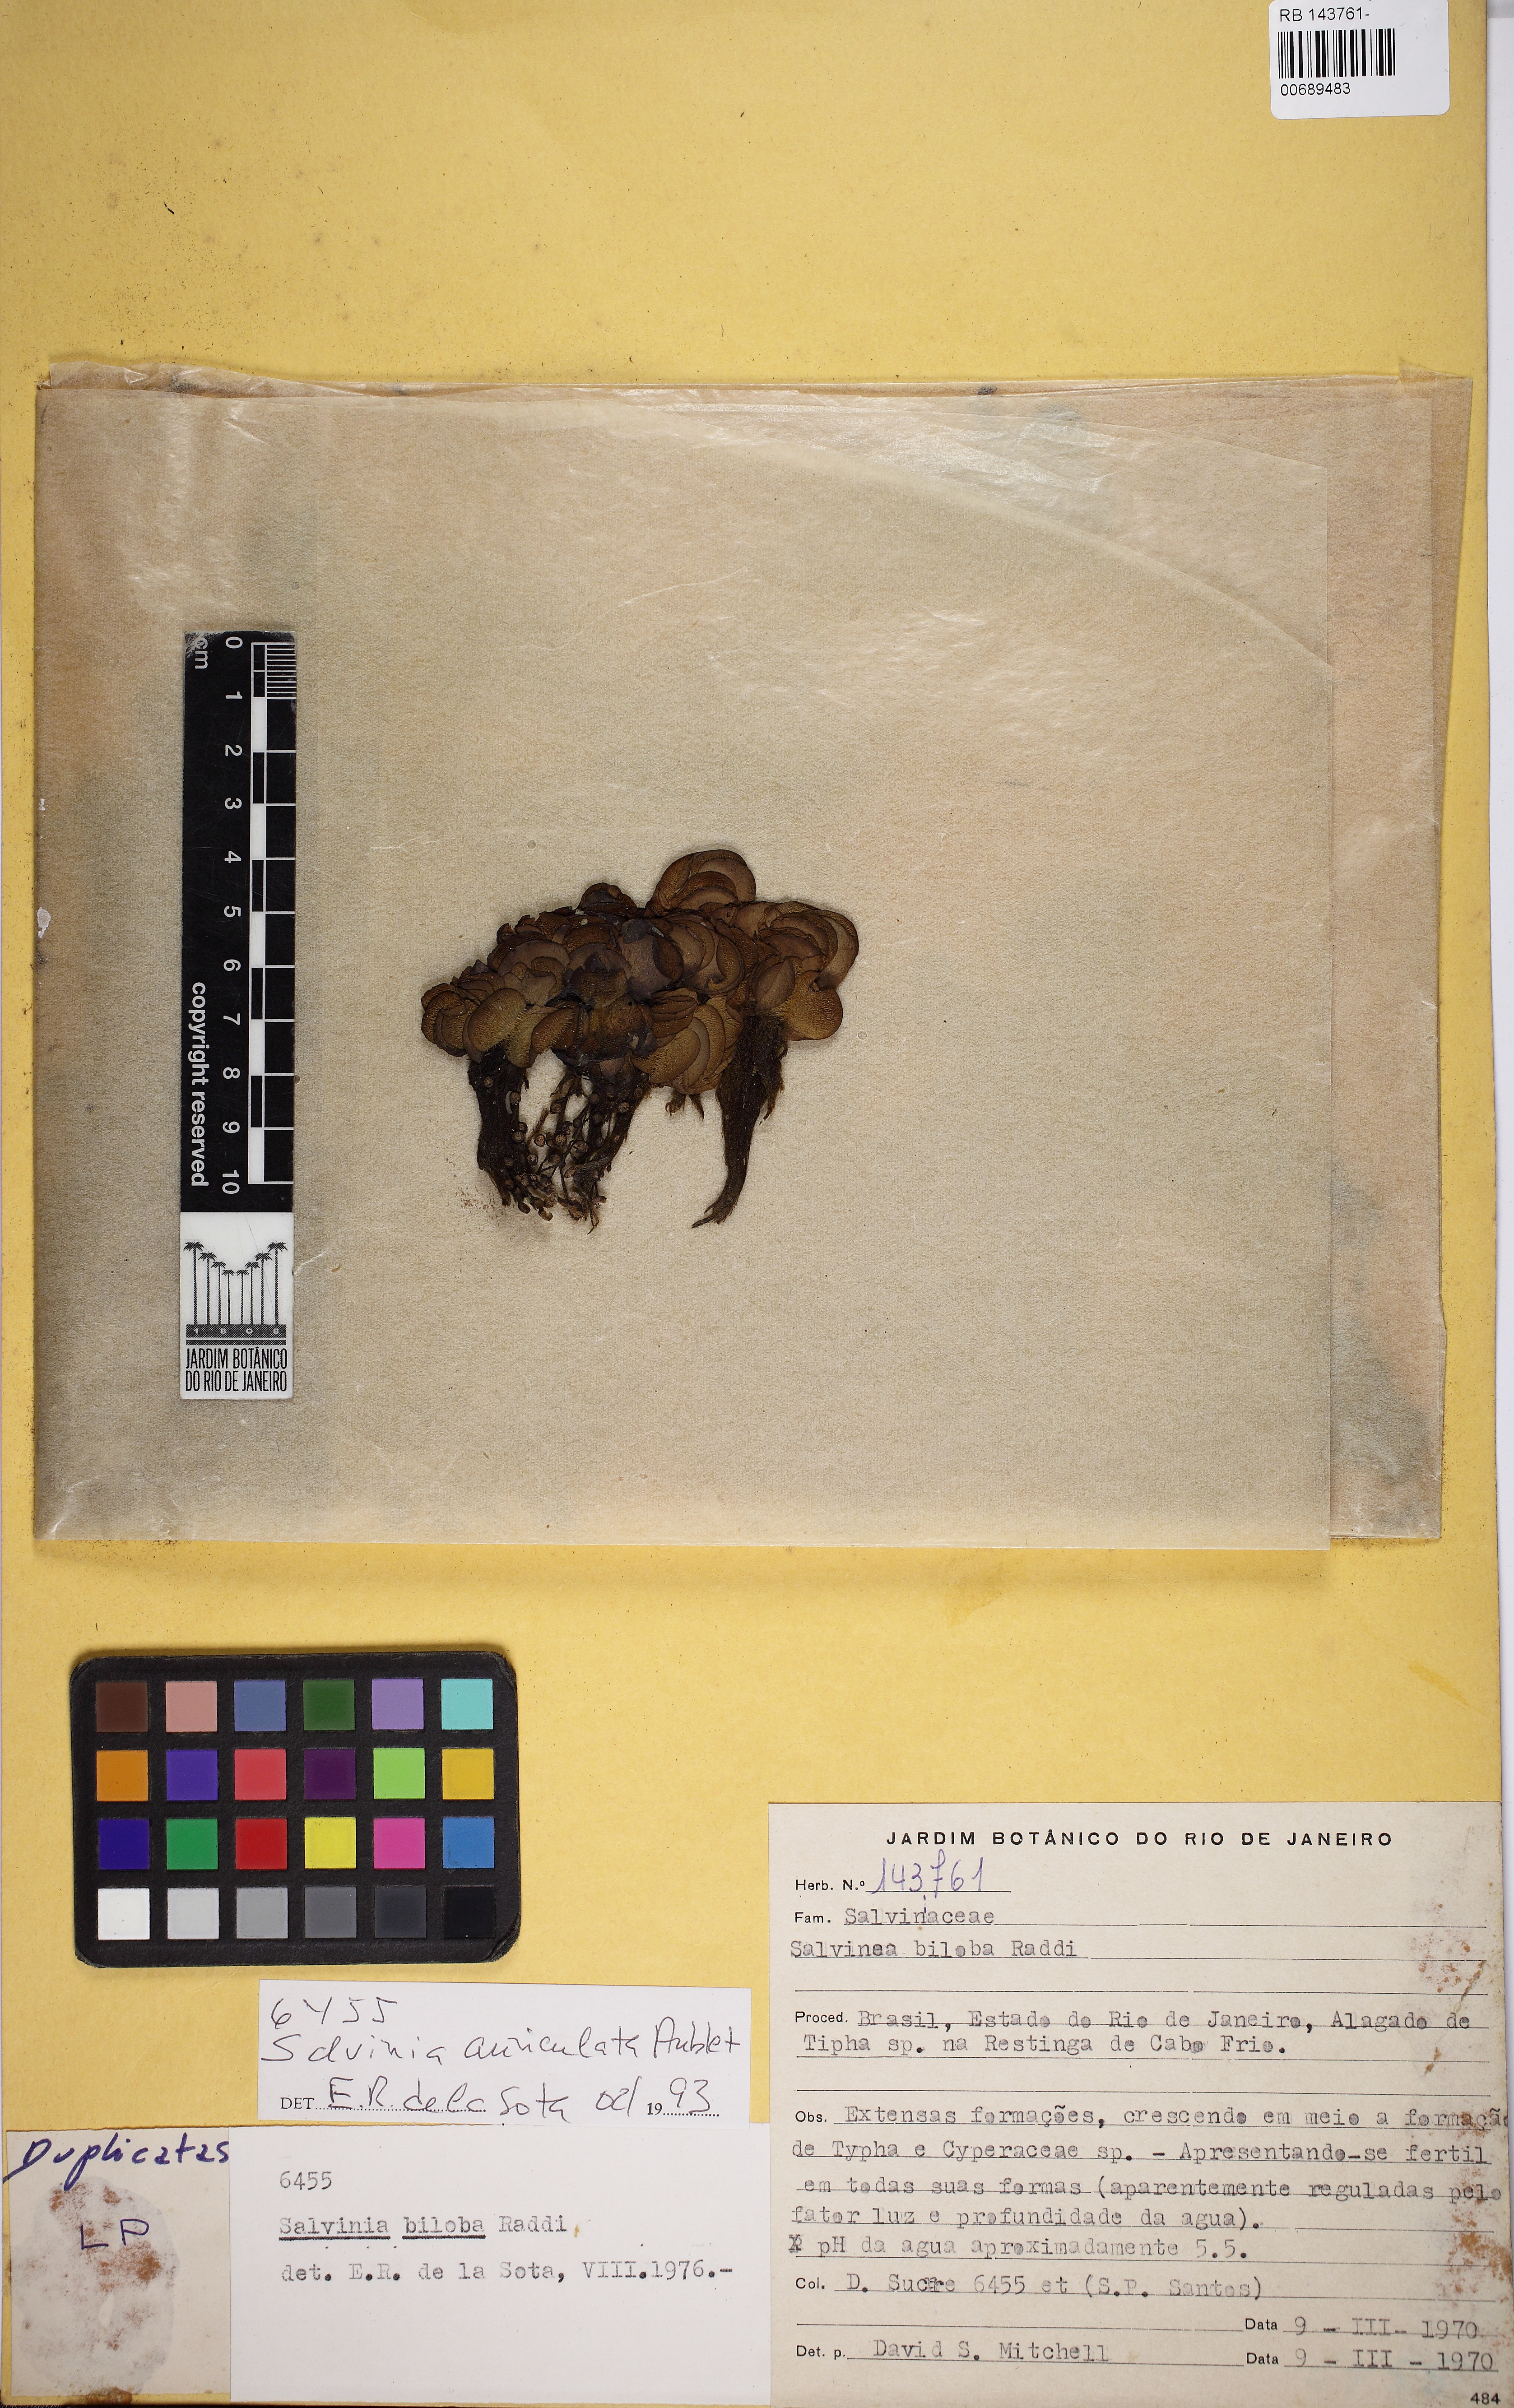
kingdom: Plantae
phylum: Tracheophyta
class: Polypodiopsida
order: Salviniales
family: Salviniaceae
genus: Salvinia
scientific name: Salvinia biloba
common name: Giant salvinia
